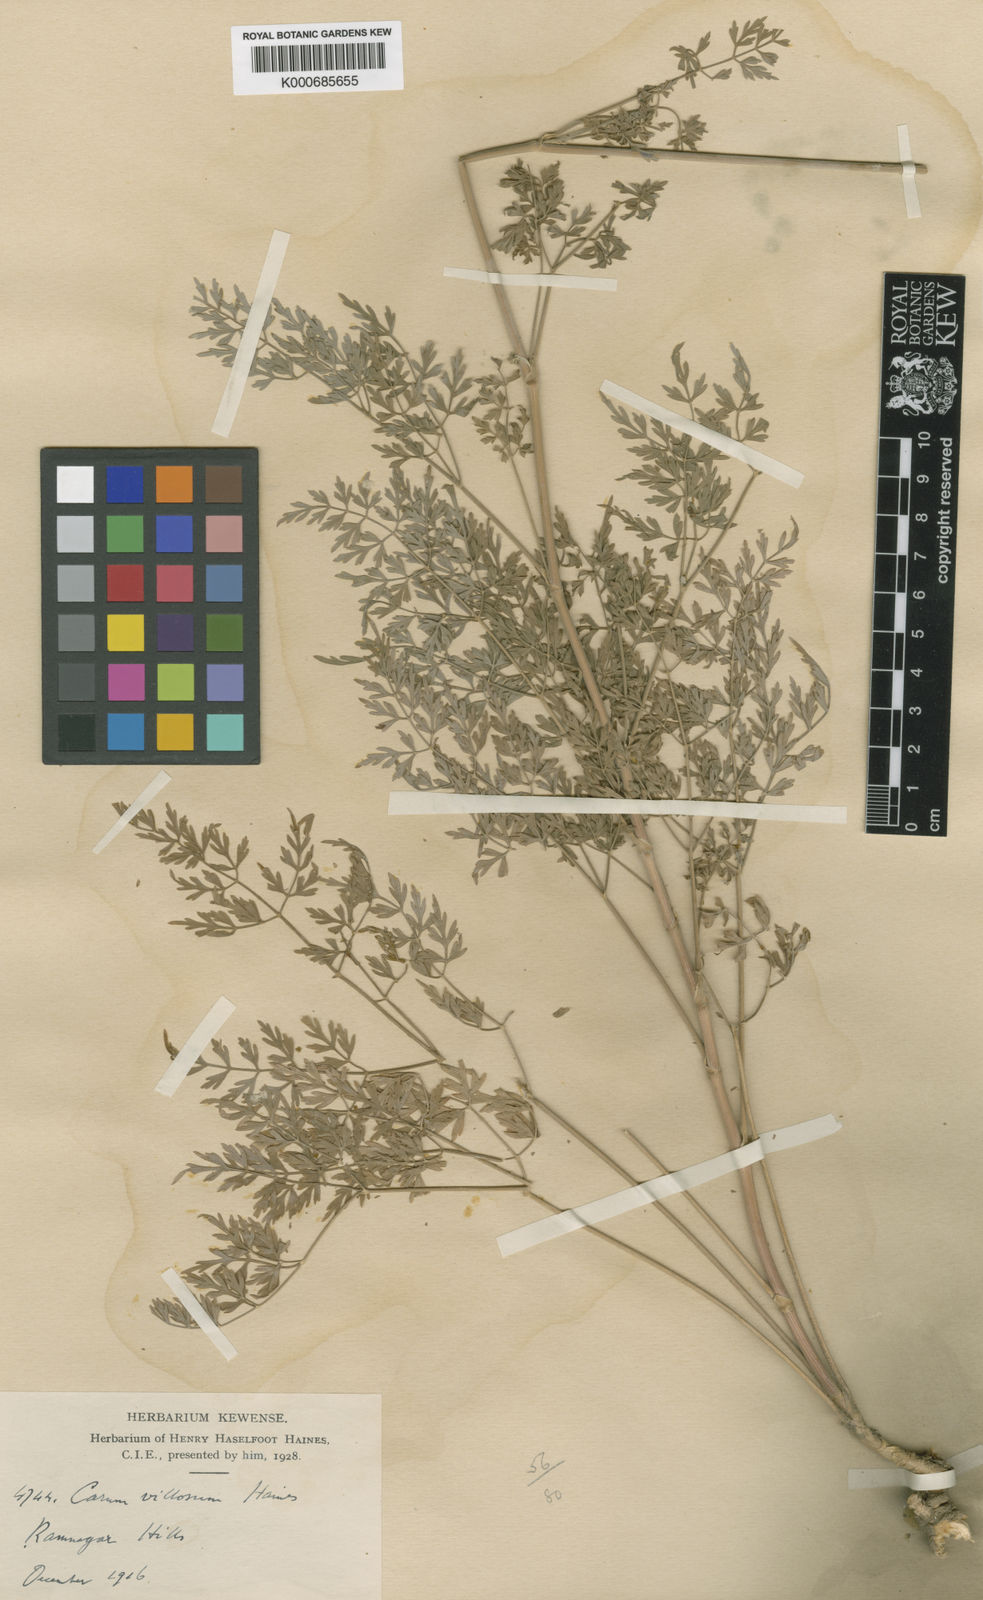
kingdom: Plantae
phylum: Tracheophyta
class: Magnoliopsida
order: Apiales
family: Apiaceae
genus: Trachyspermum
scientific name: Trachyspermum villosum
